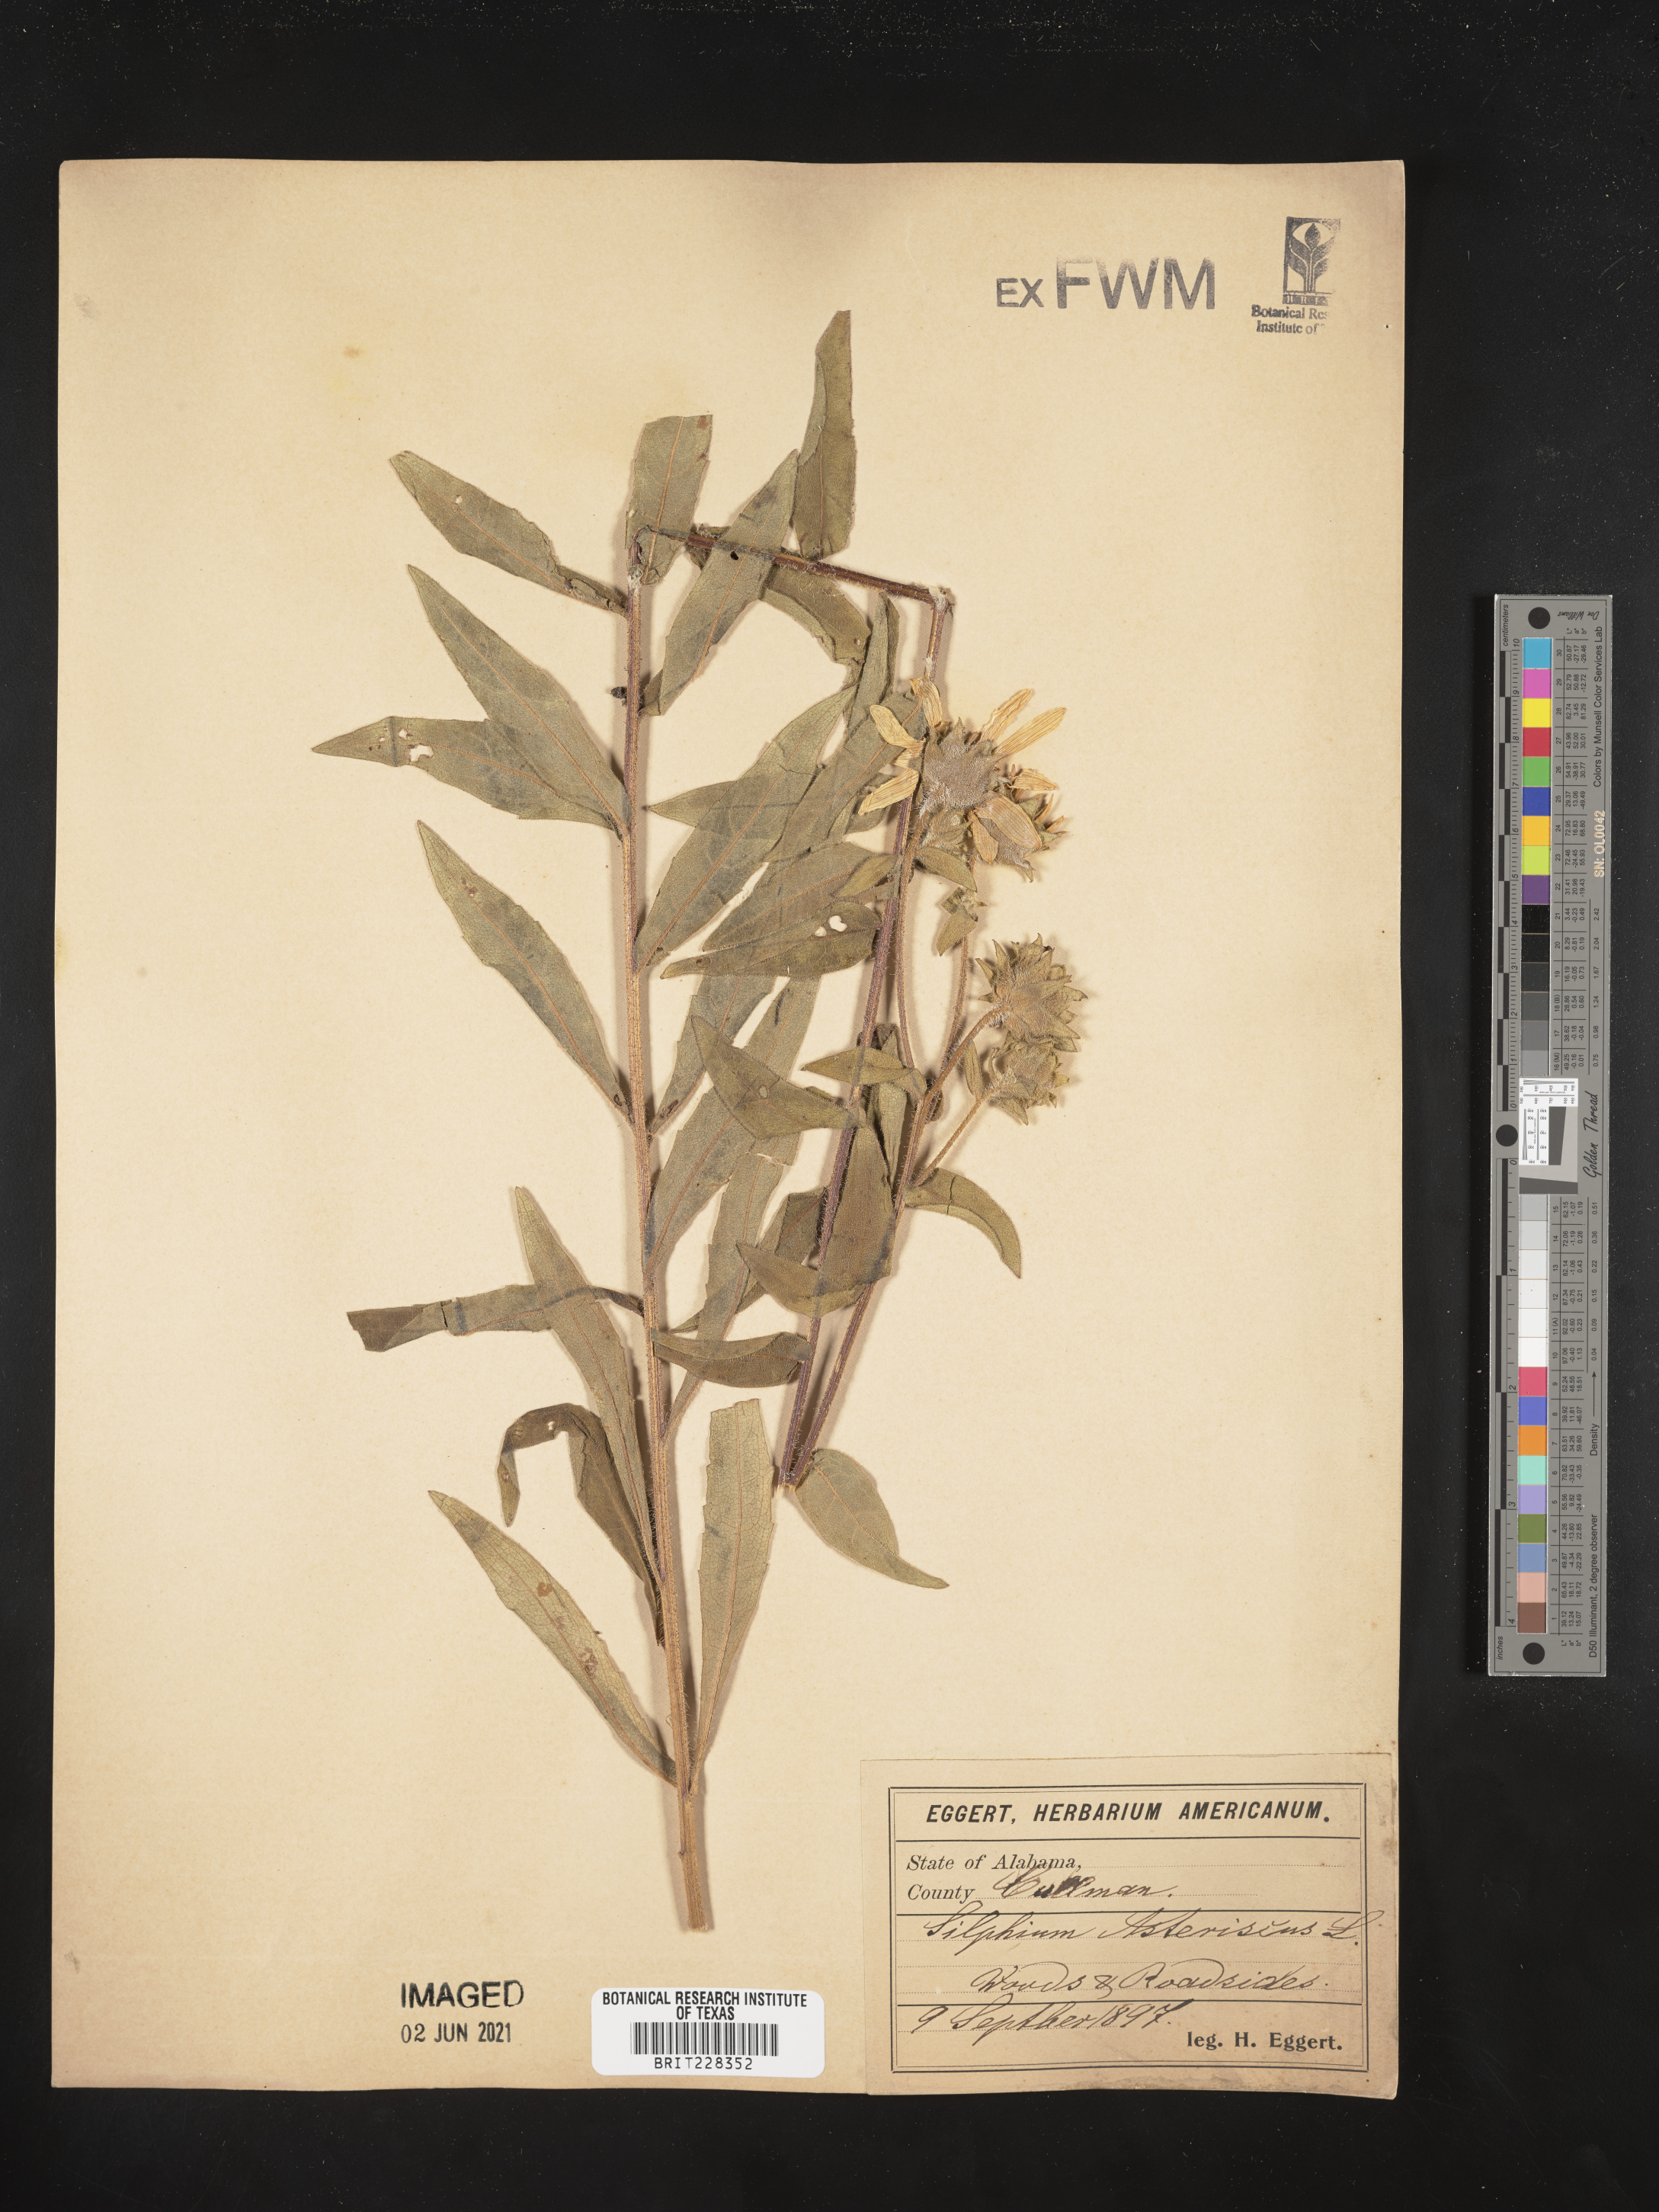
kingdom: Plantae
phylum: Tracheophyta
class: Magnoliopsida
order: Asterales
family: Asteraceae
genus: Silphium
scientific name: Silphium asteriscus
